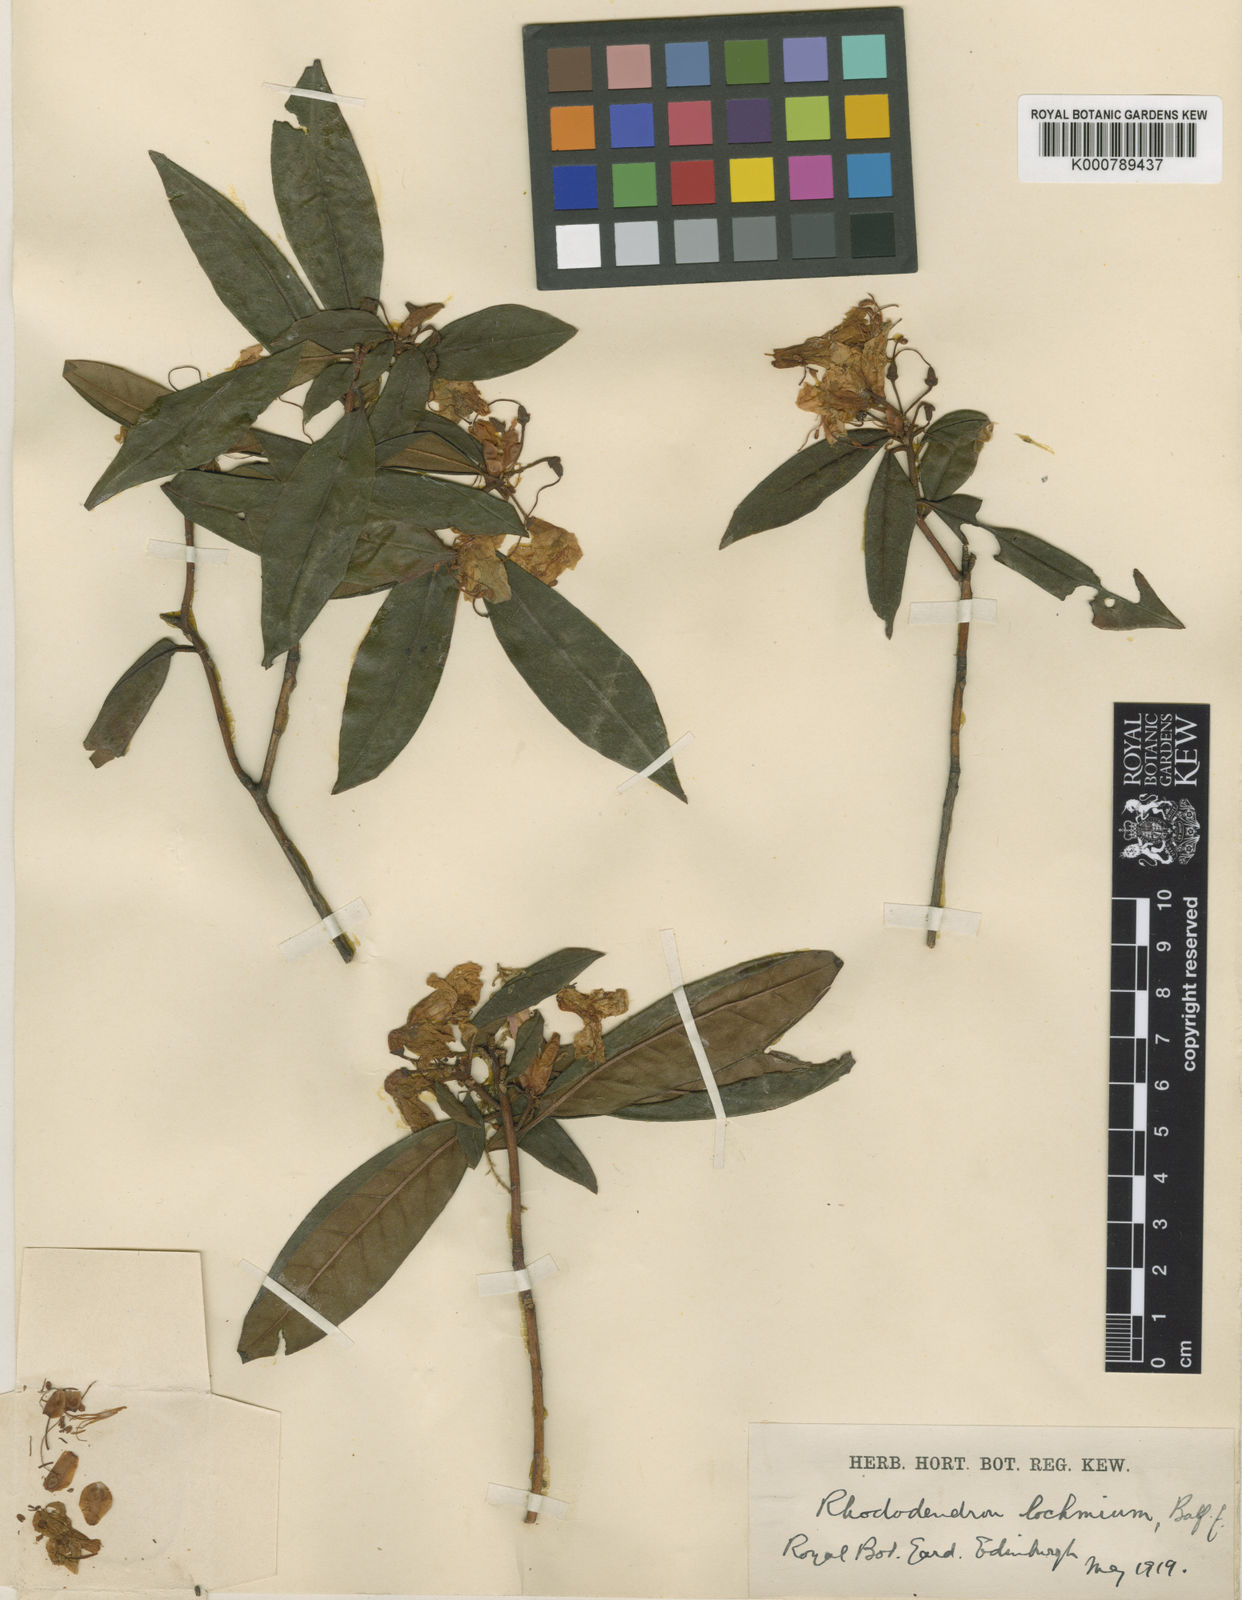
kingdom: Plantae
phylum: Tracheophyta
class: Magnoliopsida
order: Ericales
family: Ericaceae
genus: Rhododendron
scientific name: Rhododendron
